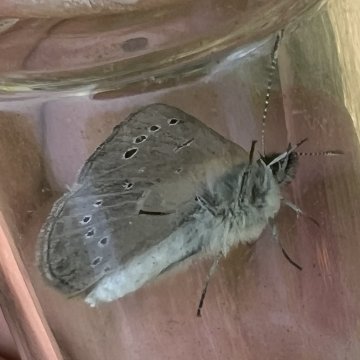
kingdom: Animalia
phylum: Arthropoda
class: Insecta
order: Lepidoptera
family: Lycaenidae
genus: Glaucopsyche
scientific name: Glaucopsyche lygdamus
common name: Silvery Blue
